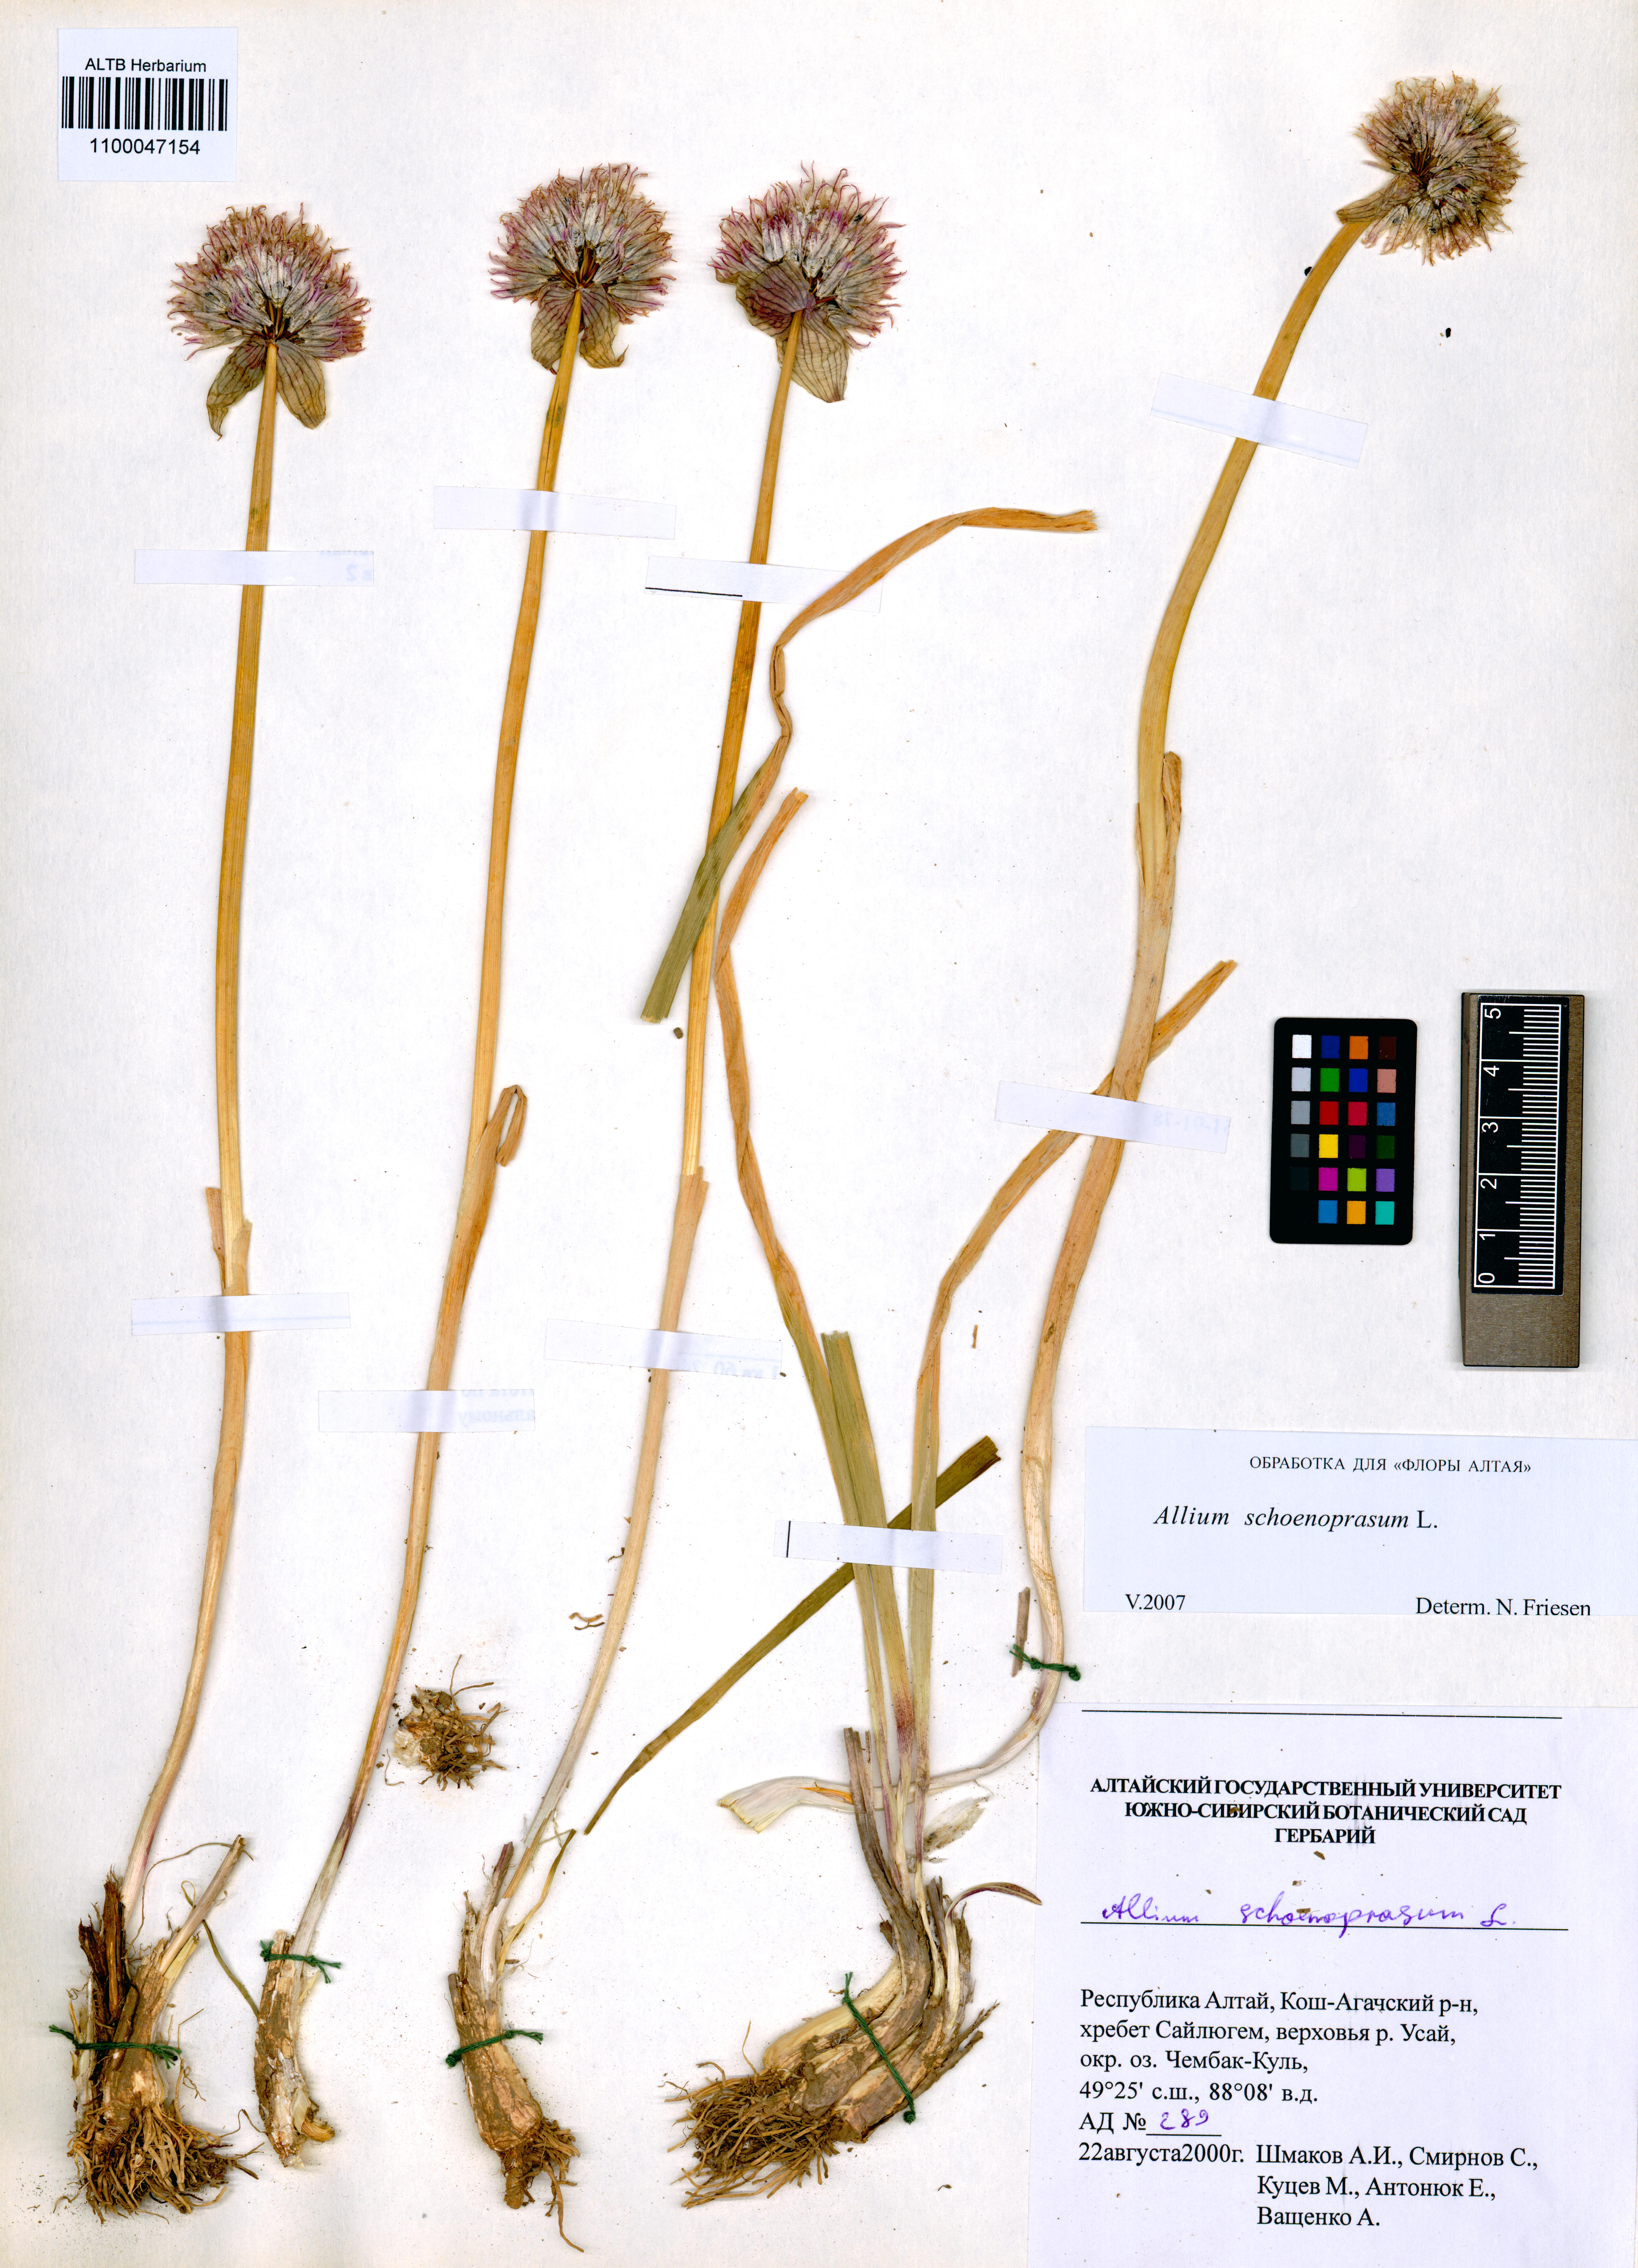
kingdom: Plantae
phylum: Tracheophyta
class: Liliopsida
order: Asparagales
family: Amaryllidaceae
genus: Allium
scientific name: Allium schoenoprasum
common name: Chives
